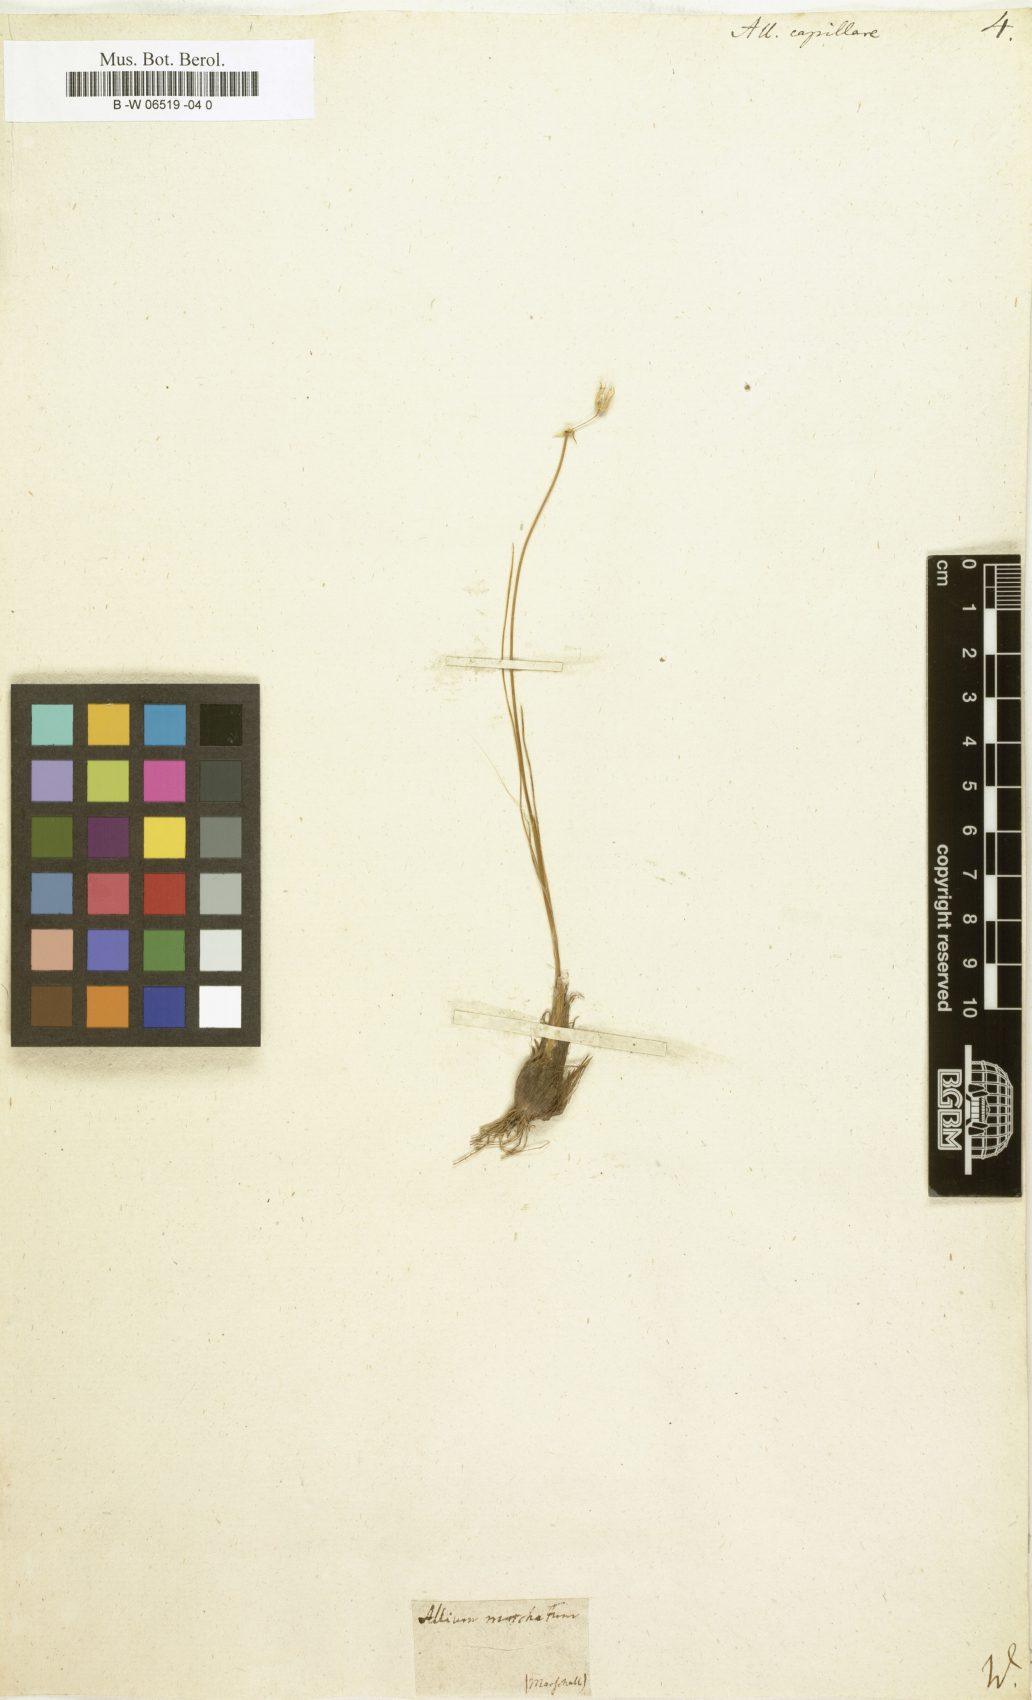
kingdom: Plantae
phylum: Tracheophyta
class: Liliopsida
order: Asparagales
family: Amaryllidaceae
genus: Allium
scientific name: Allium capillare
